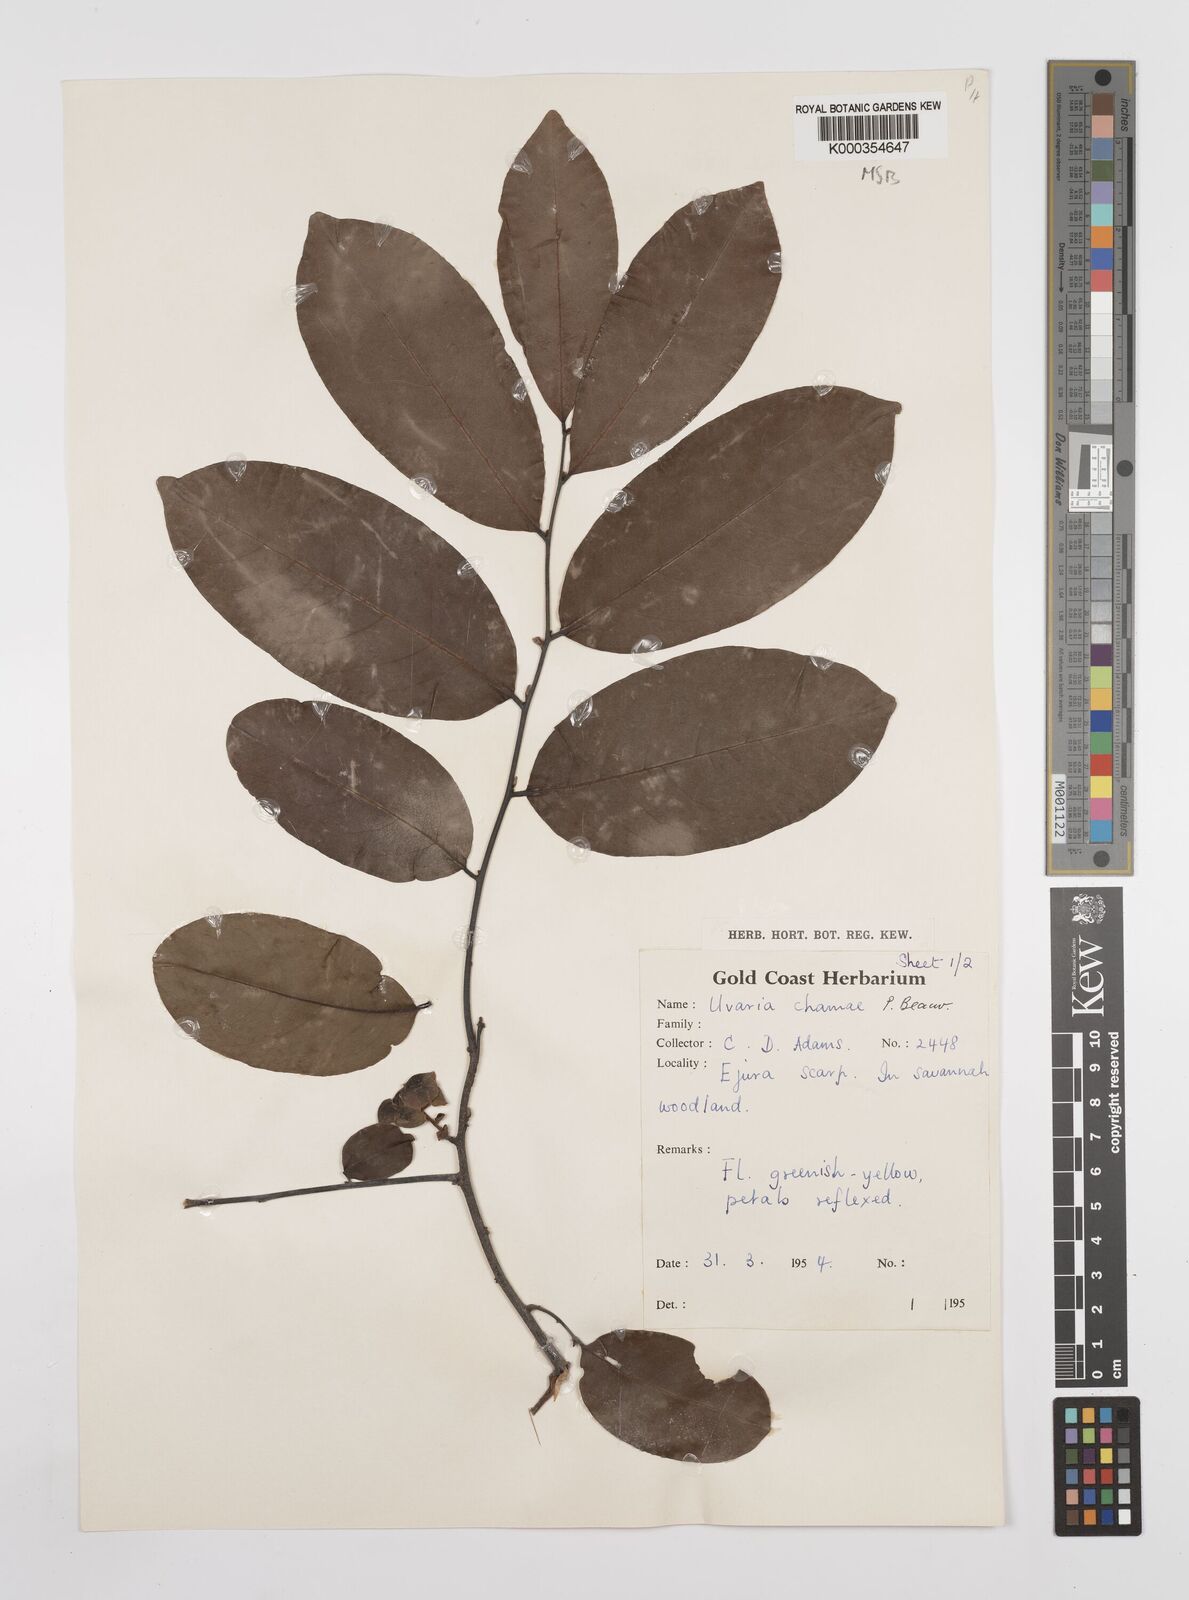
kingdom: Plantae
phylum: Tracheophyta
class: Magnoliopsida
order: Magnoliales
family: Annonaceae
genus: Uvaria
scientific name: Uvaria chamae
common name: Finger-root
